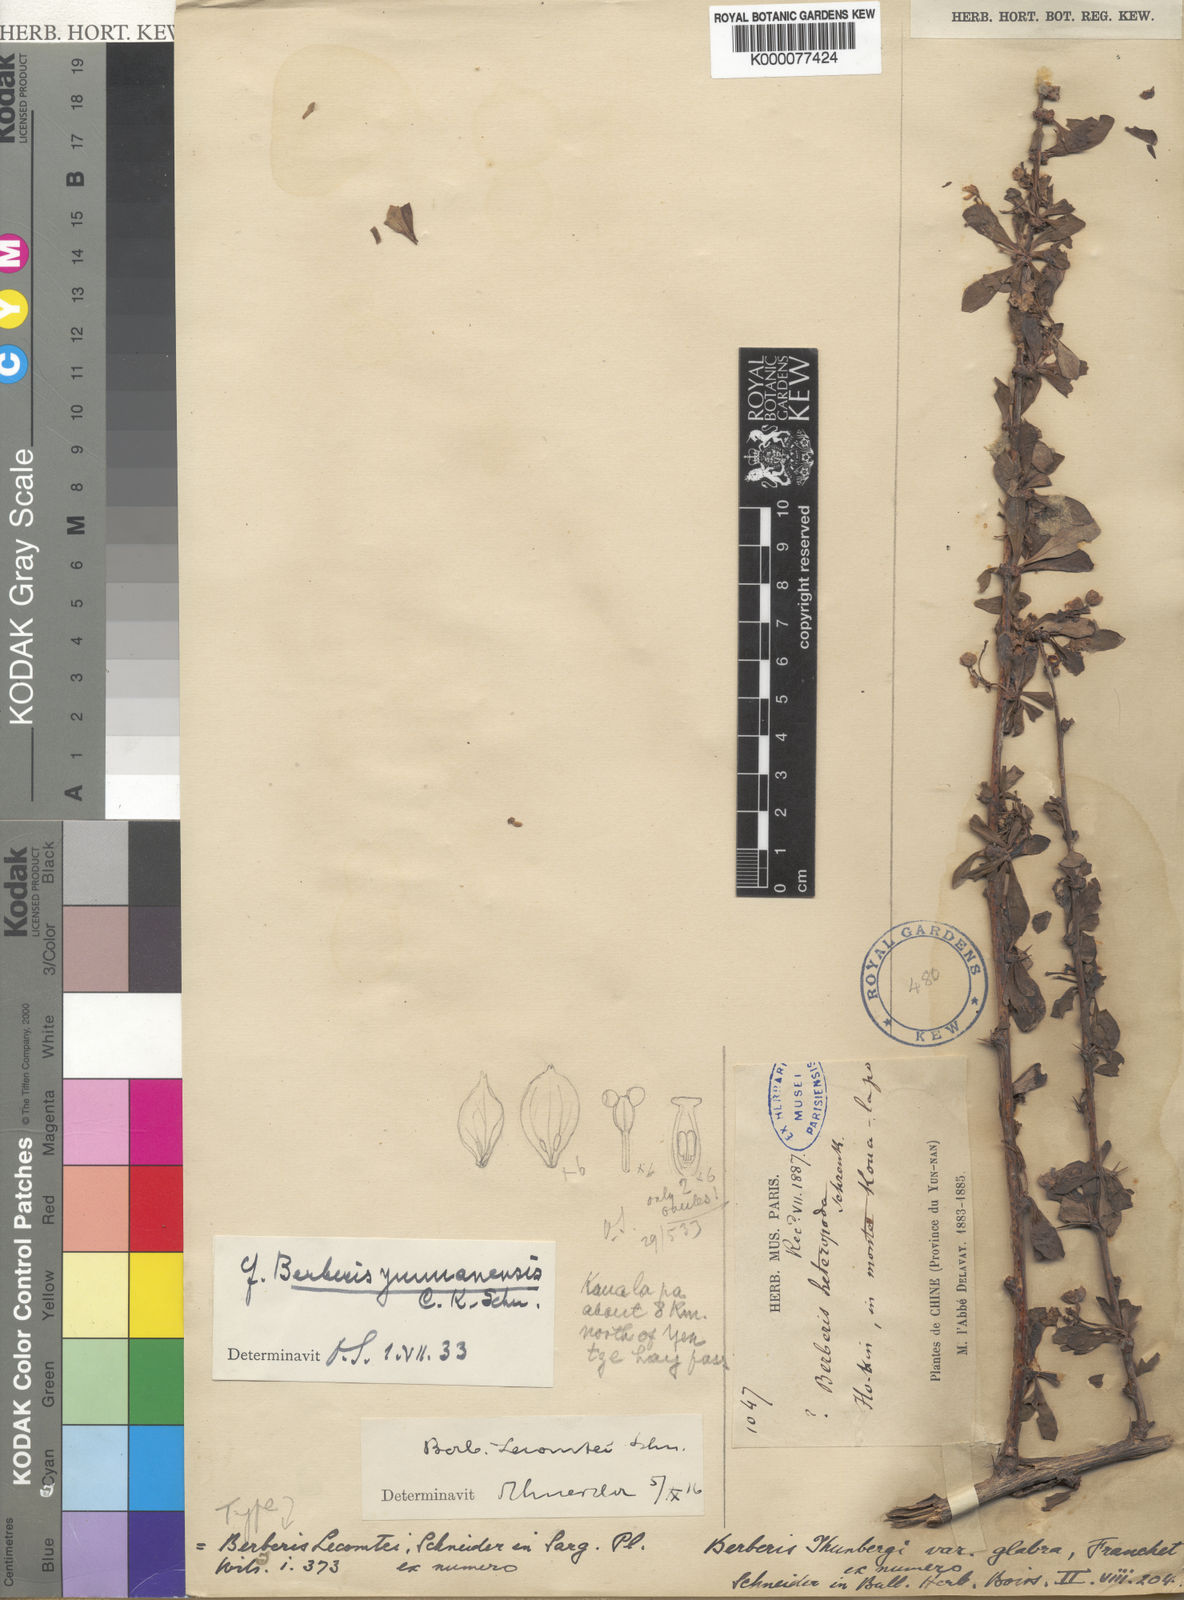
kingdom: Plantae
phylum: Tracheophyta
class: Magnoliopsida
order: Ranunculales
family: Berberidaceae
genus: Berberis
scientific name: Berberis
